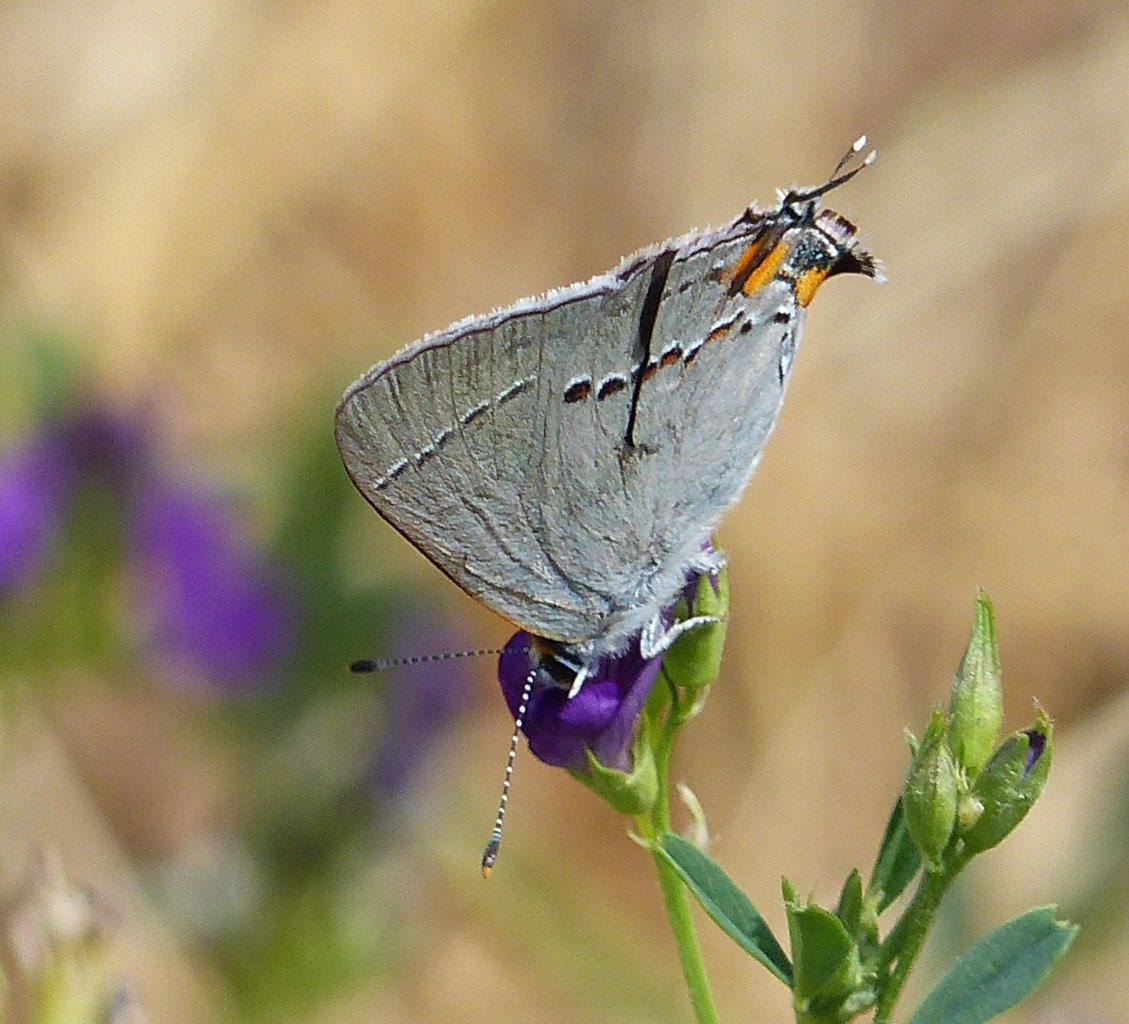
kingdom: Animalia
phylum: Arthropoda
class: Insecta
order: Lepidoptera
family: Lycaenidae
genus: Strymon
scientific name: Strymon melinus
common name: Gray Hairstreak
